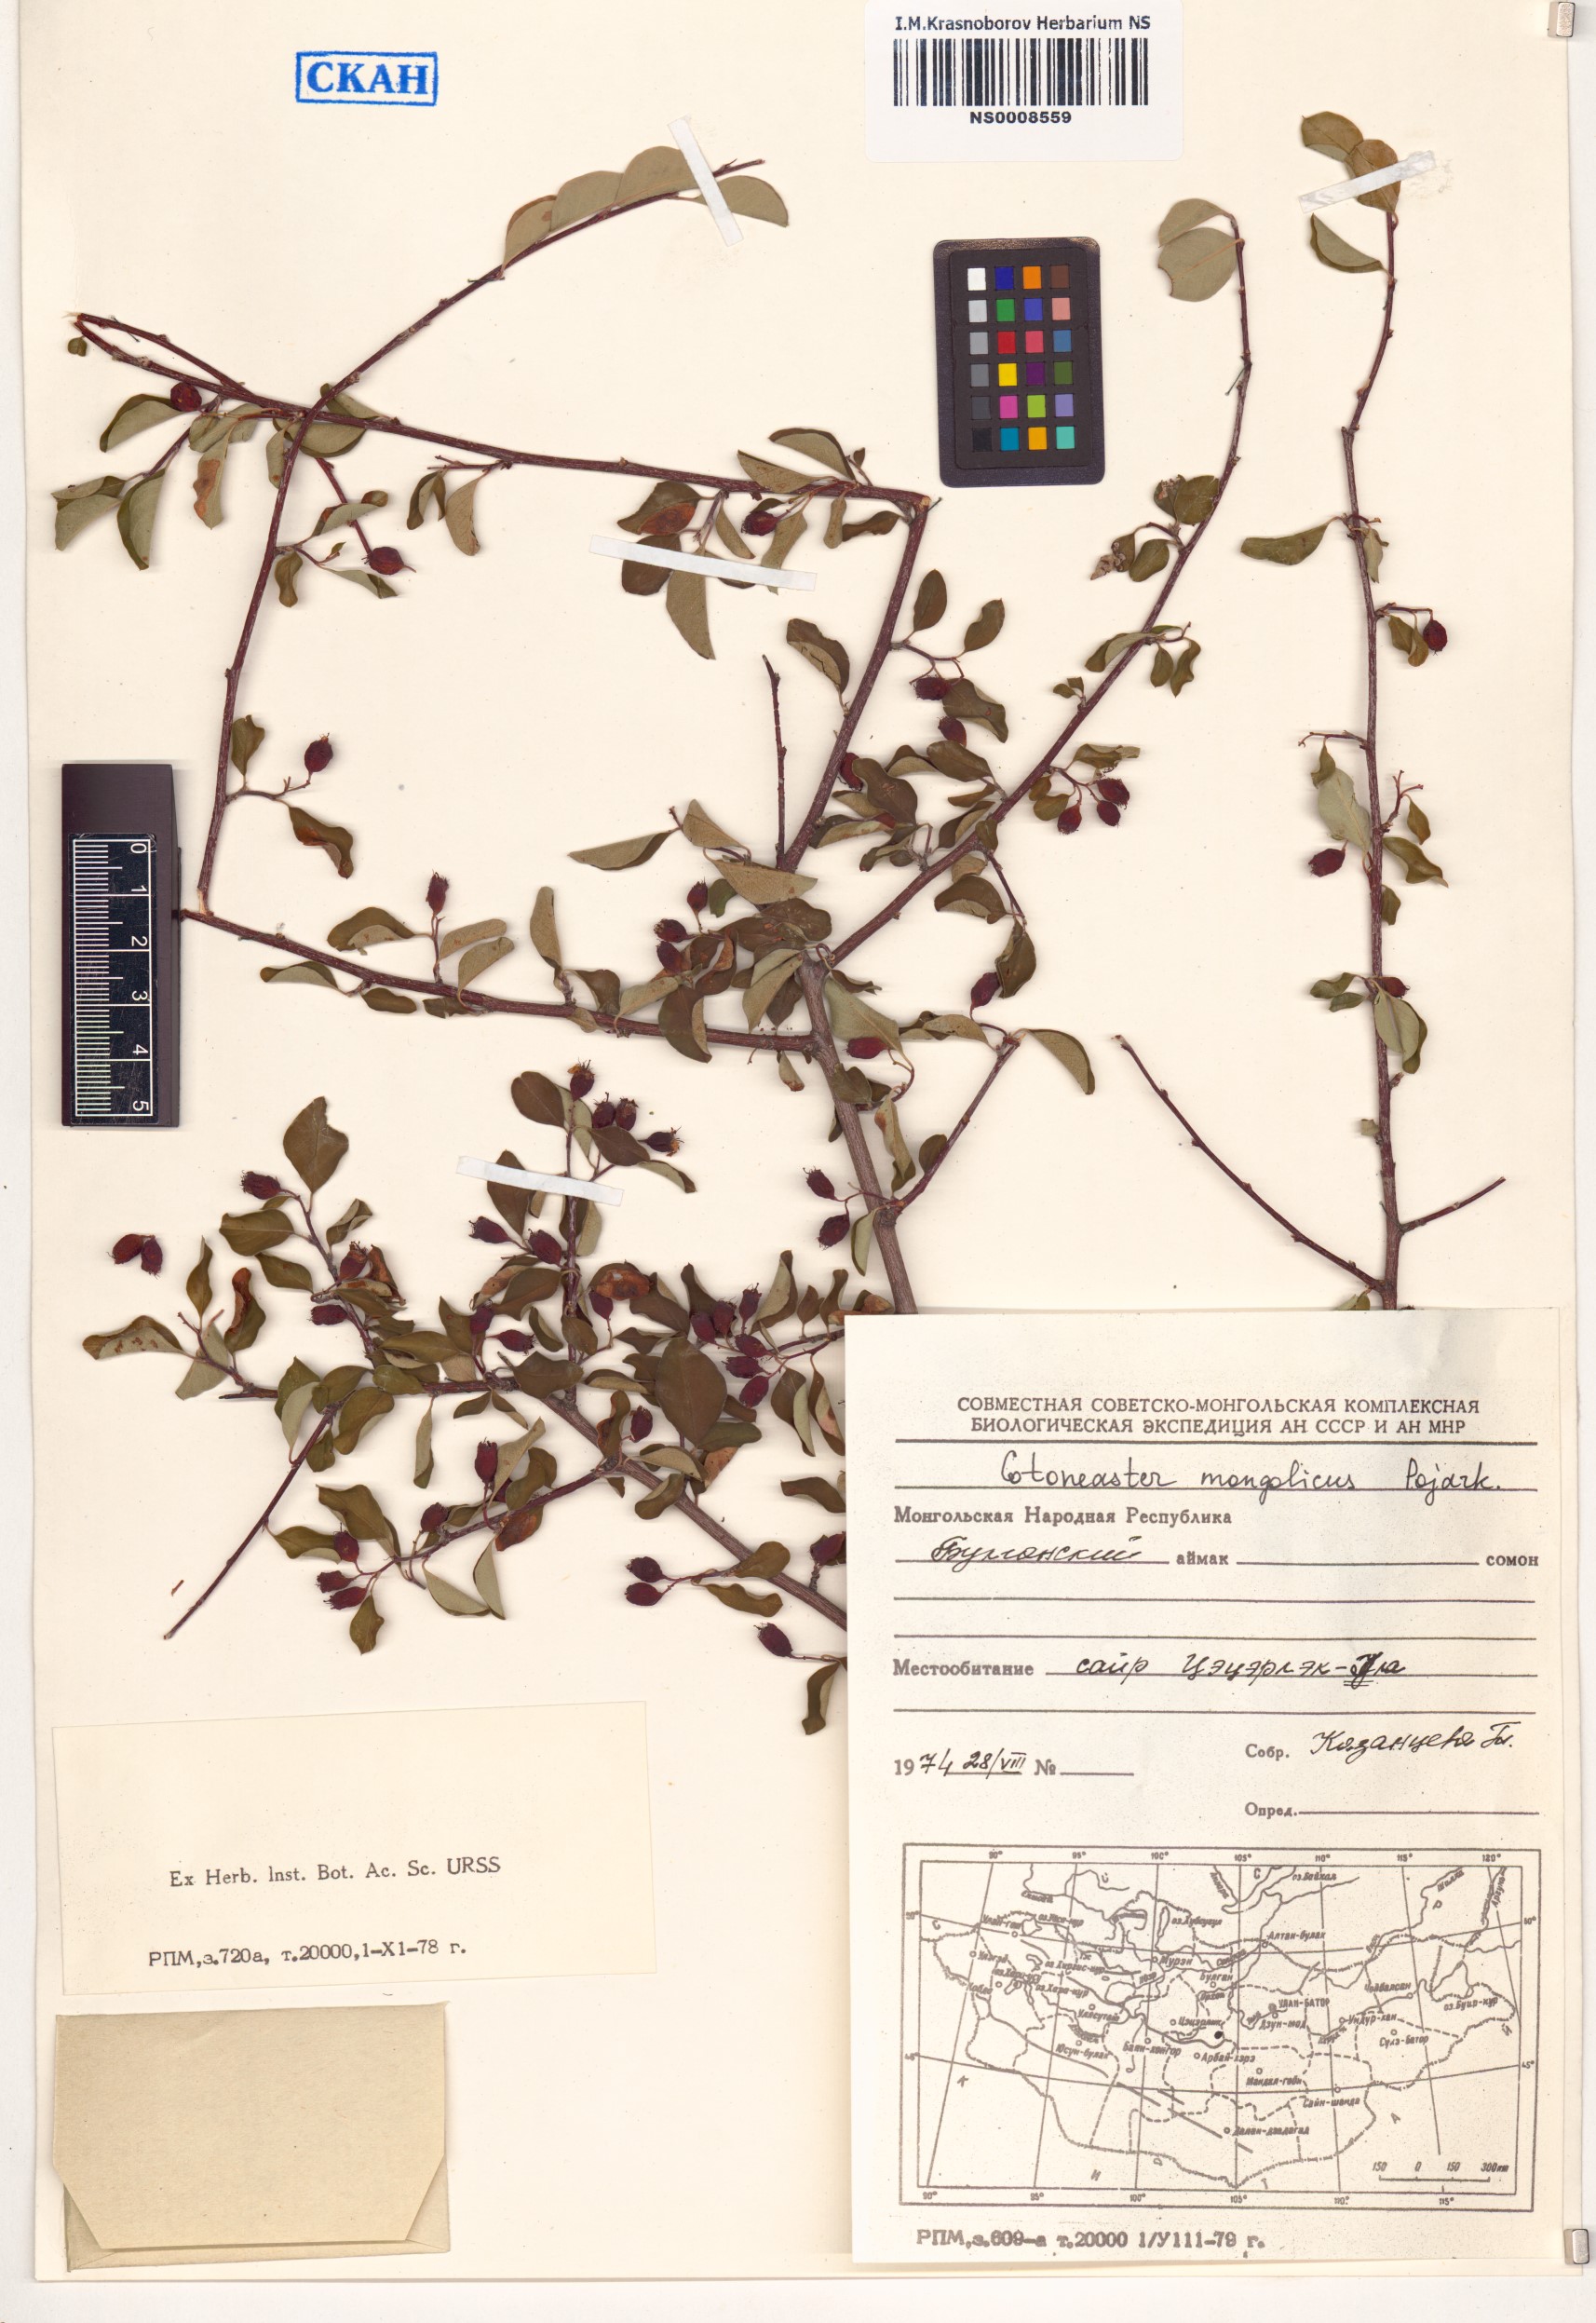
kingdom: Plantae
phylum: Tracheophyta
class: Magnoliopsida
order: Rosales
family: Rosaceae
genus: Cotoneaster
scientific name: Cotoneaster mongolicus
